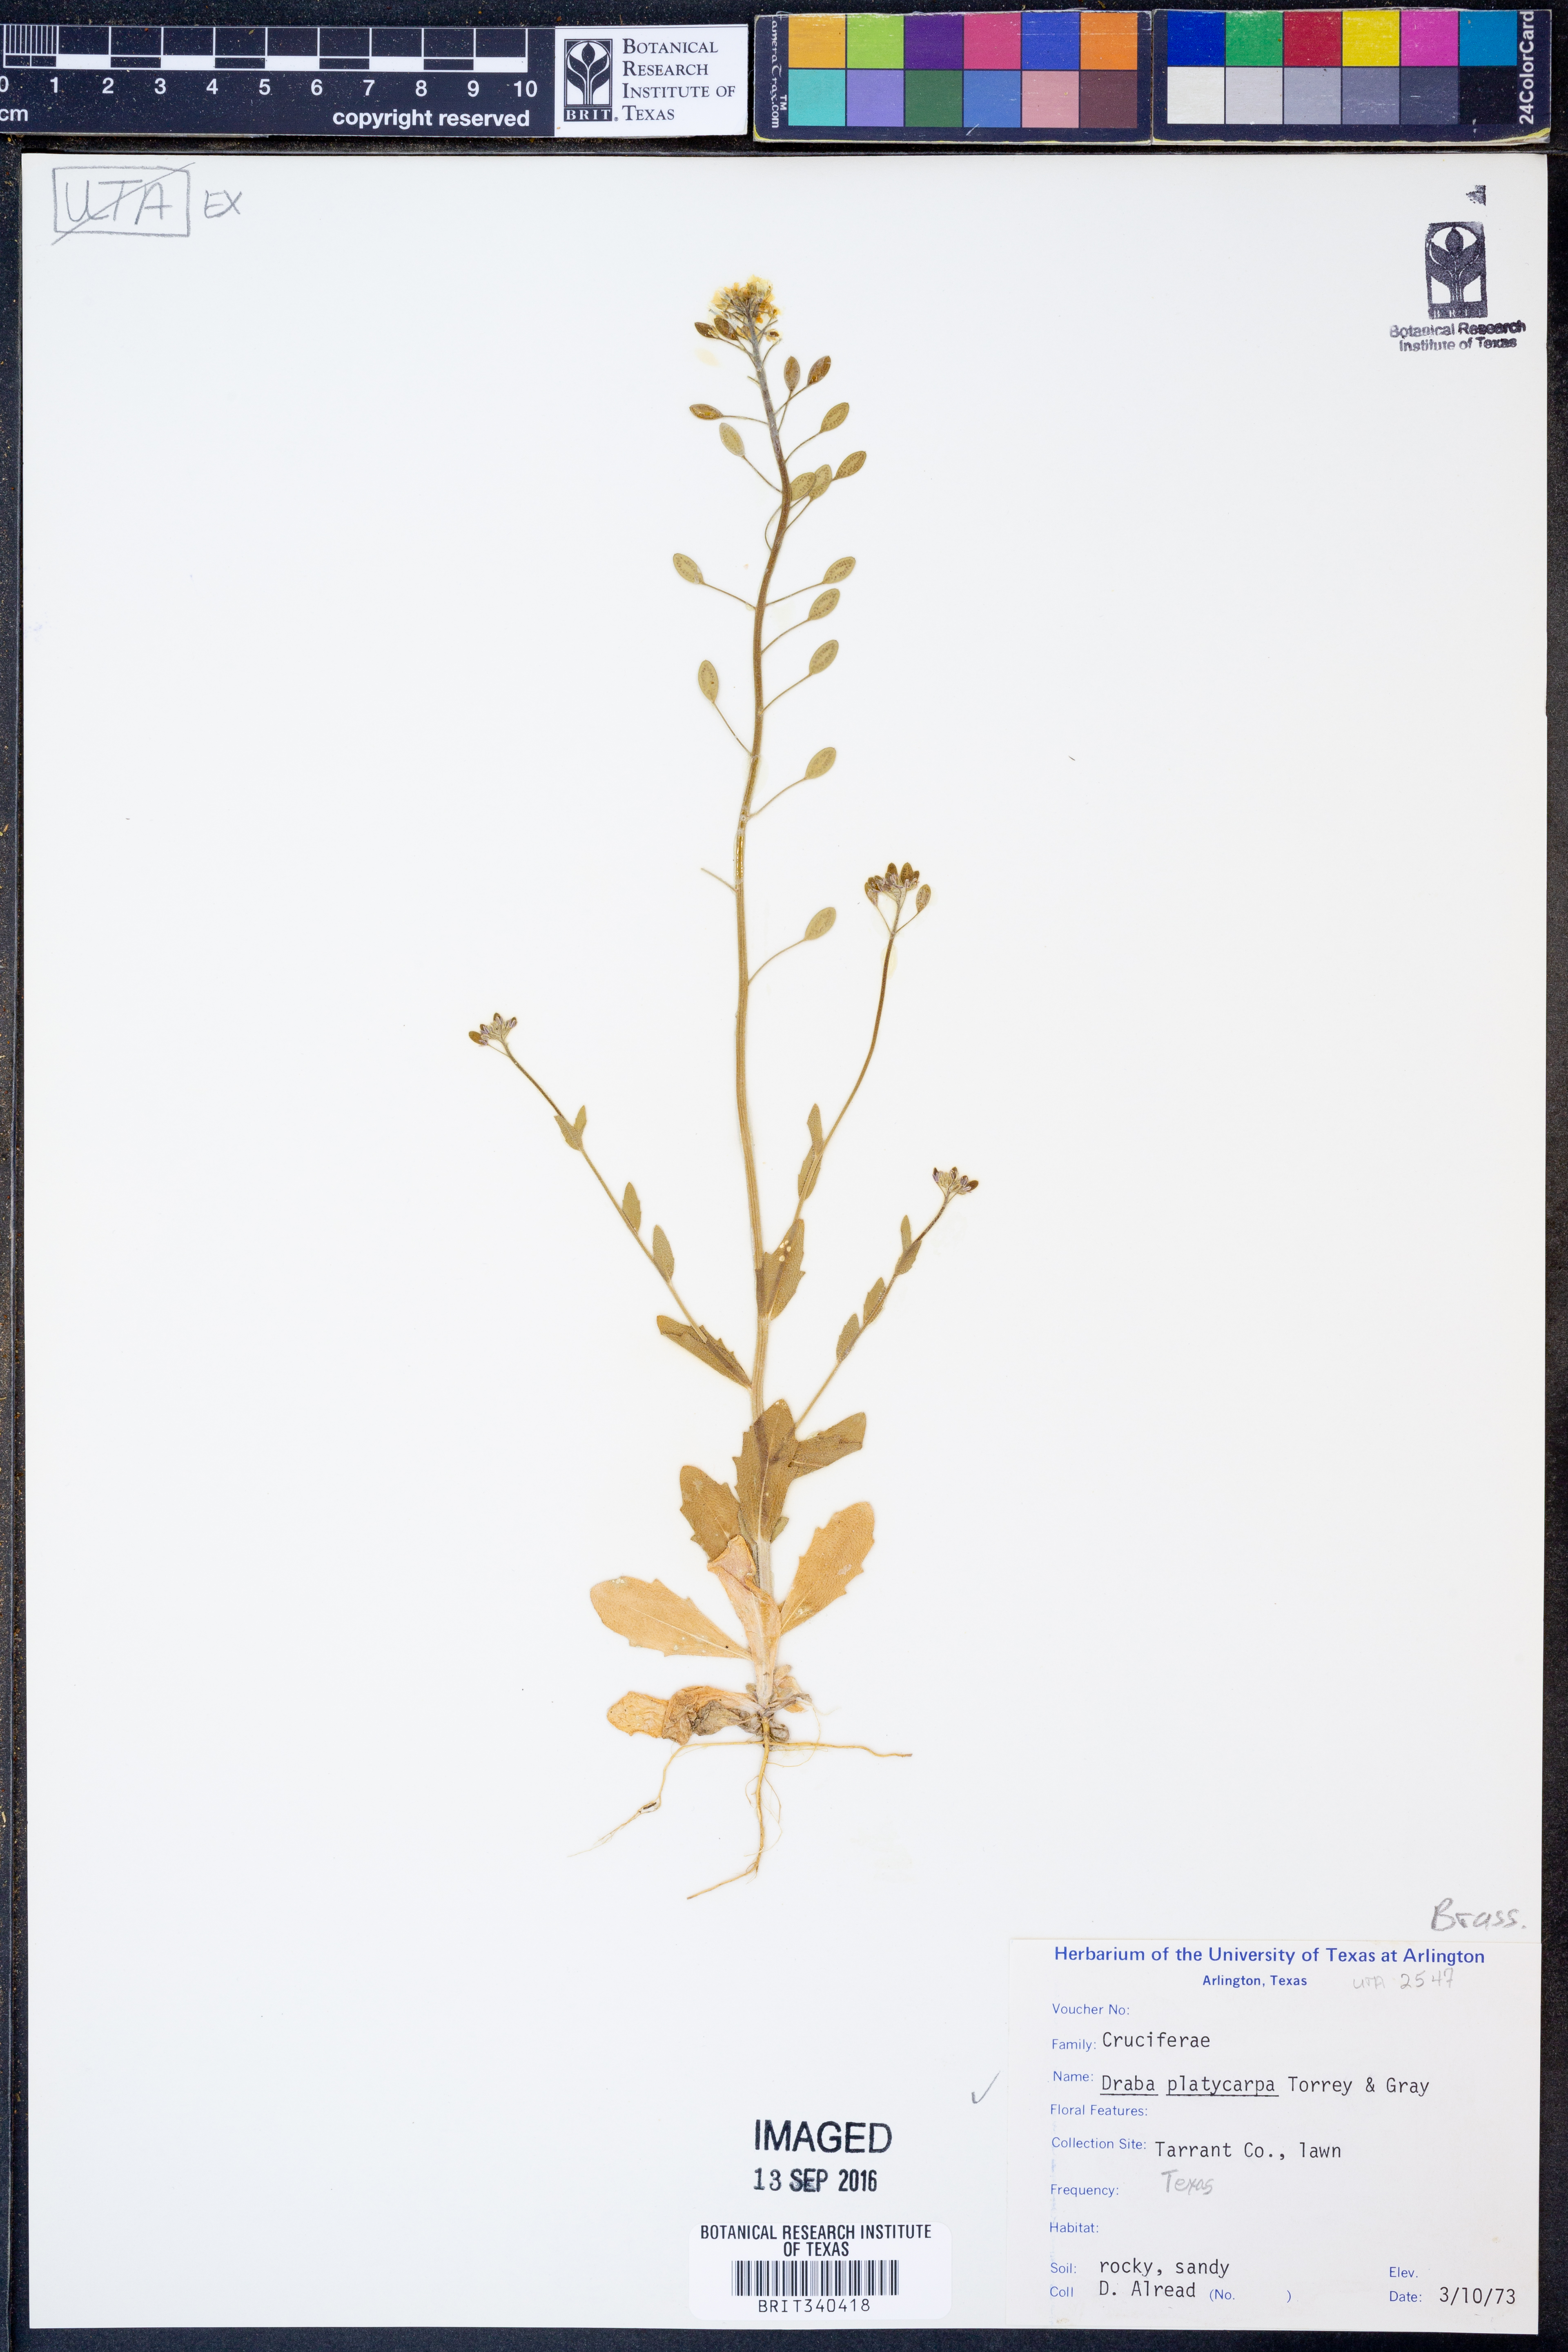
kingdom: Plantae
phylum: Tracheophyta
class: Magnoliopsida
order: Brassicales
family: Brassicaceae
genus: Tomostima
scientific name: Tomostima platycarpa
